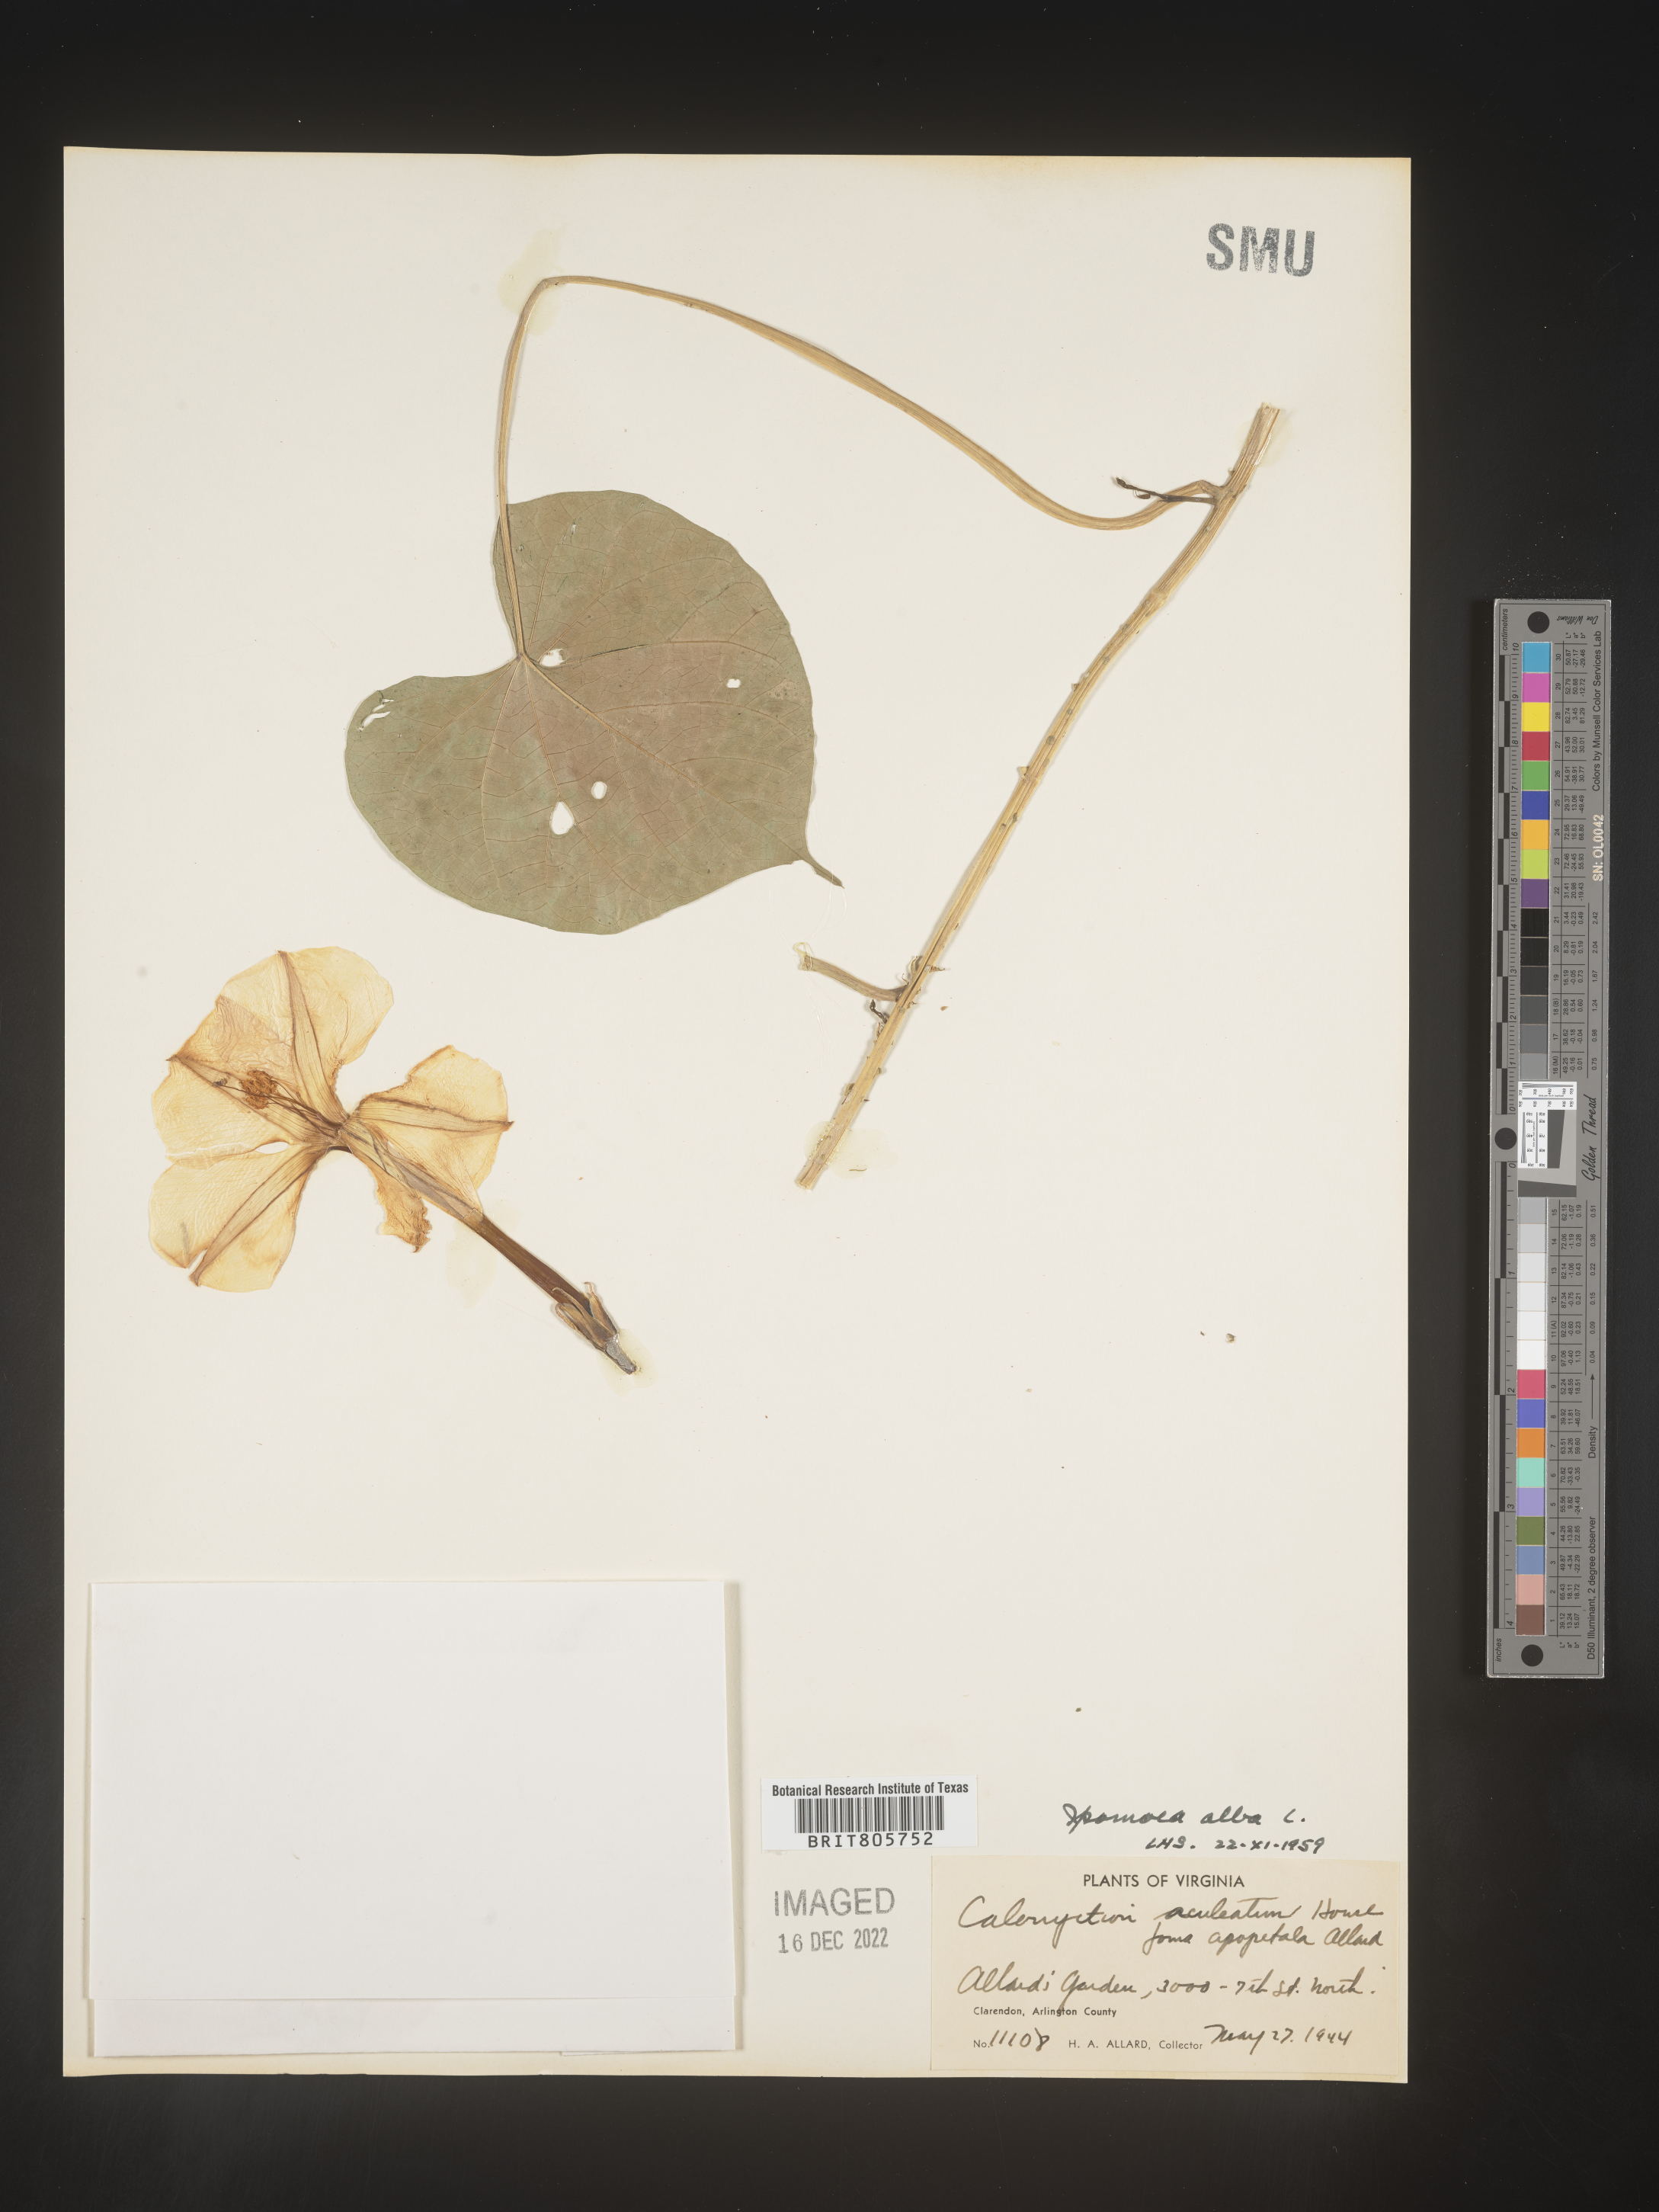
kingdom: Plantae
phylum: Tracheophyta
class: Magnoliopsida
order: Solanales
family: Convolvulaceae
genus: Ipomoea
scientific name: Ipomoea alba
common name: Moonflower
